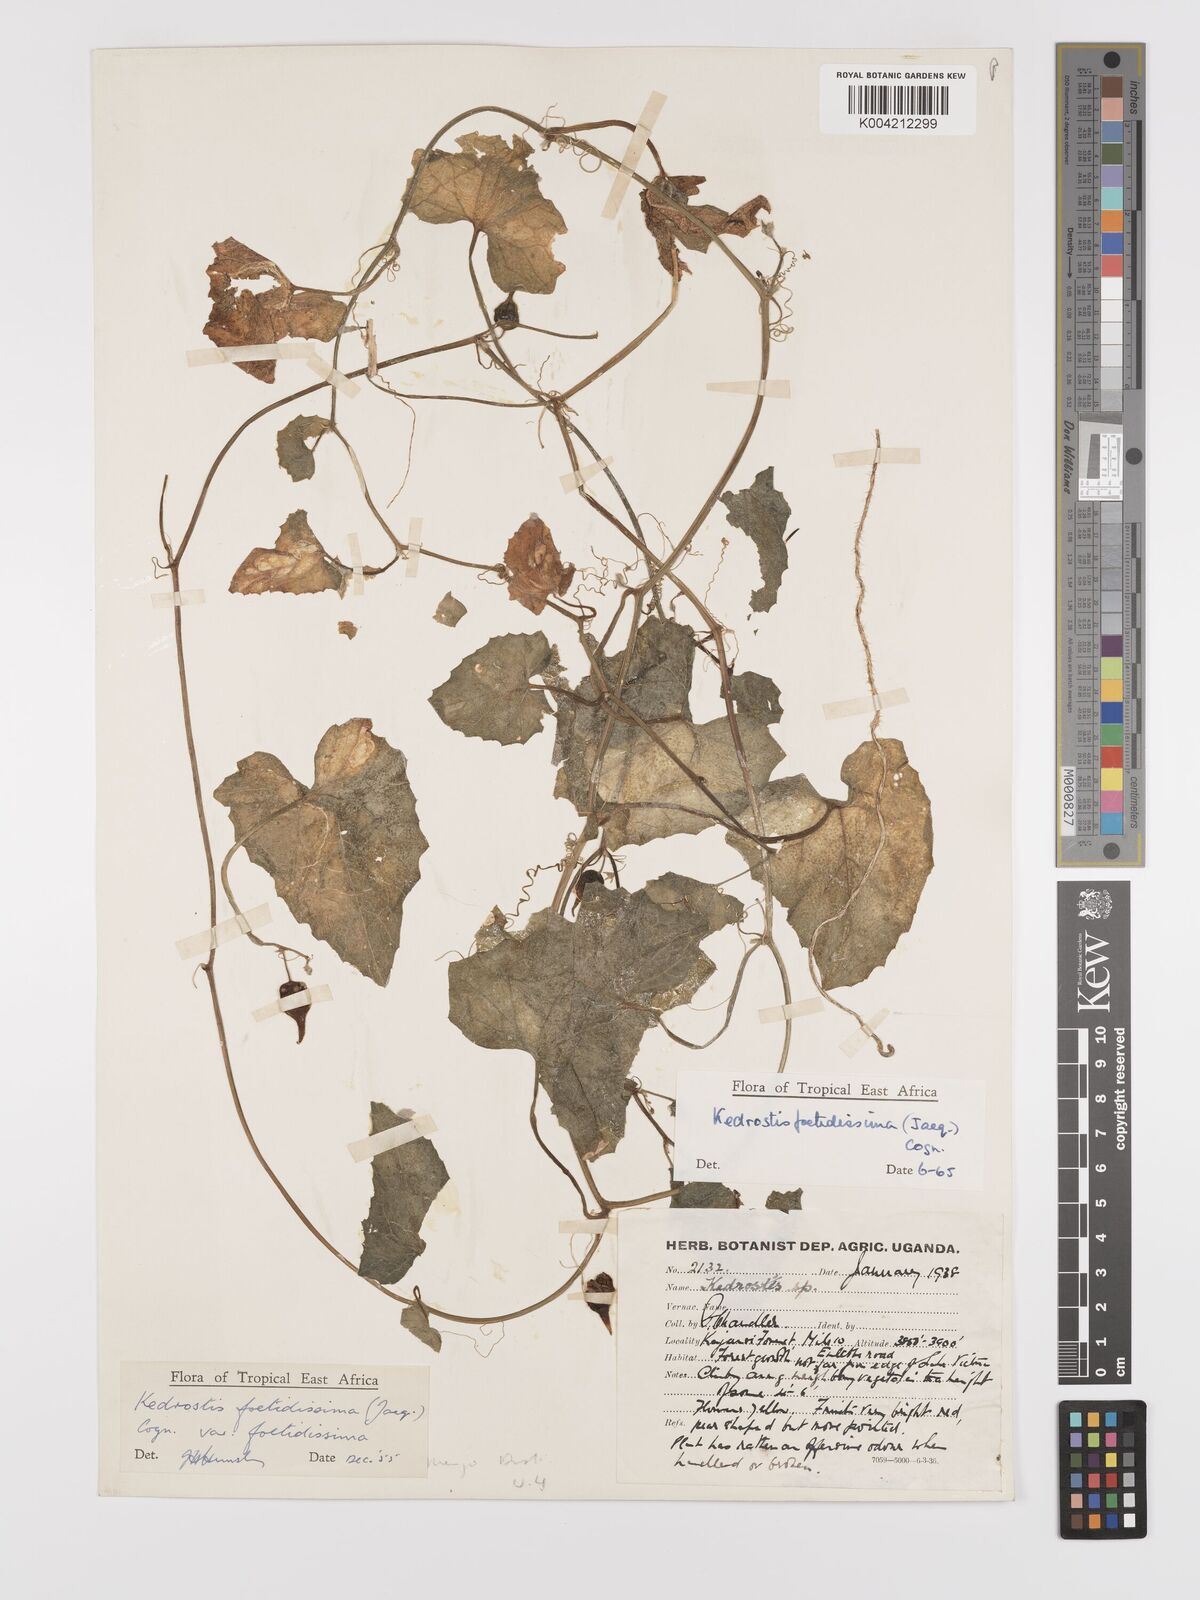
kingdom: Plantae
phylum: Tracheophyta
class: Magnoliopsida
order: Cucurbitales
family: Cucurbitaceae
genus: Kedrostis
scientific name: Kedrostis foetidissima
